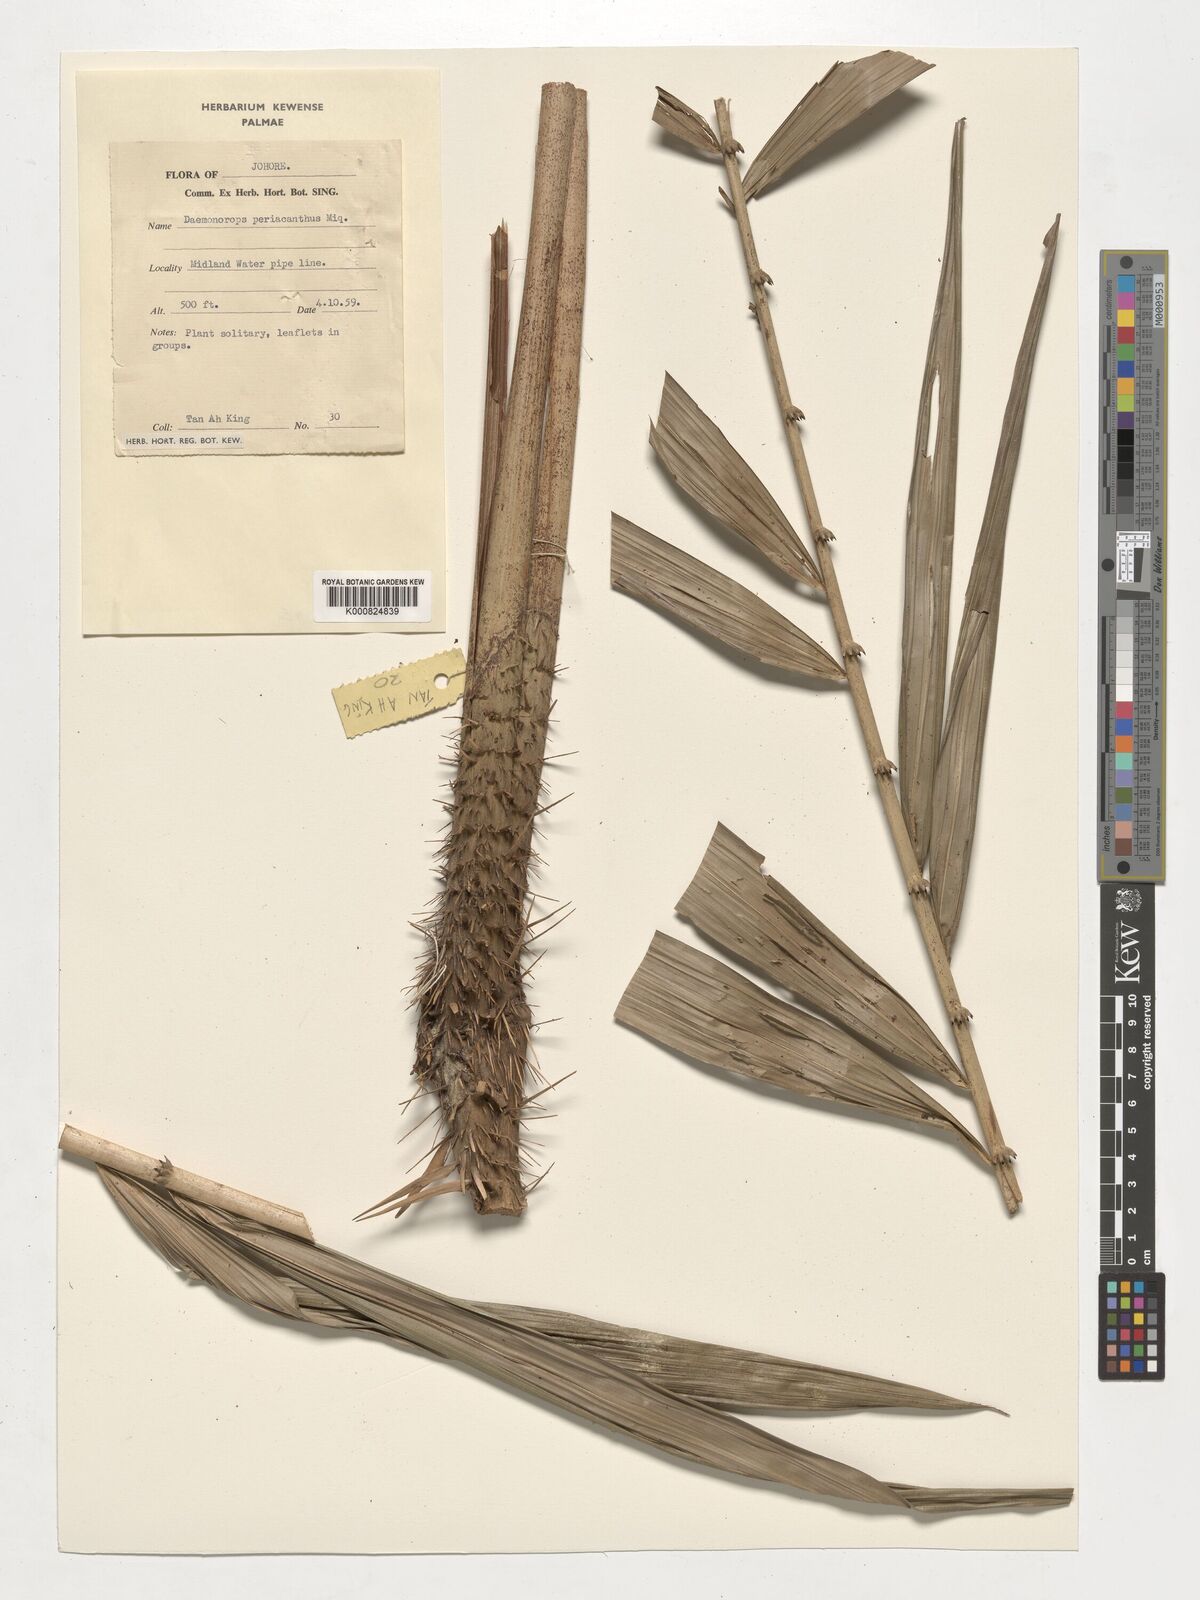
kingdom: Plantae
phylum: Tracheophyta
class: Liliopsida
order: Arecales
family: Arecaceae
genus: Calamus
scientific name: Calamus periacanthus
